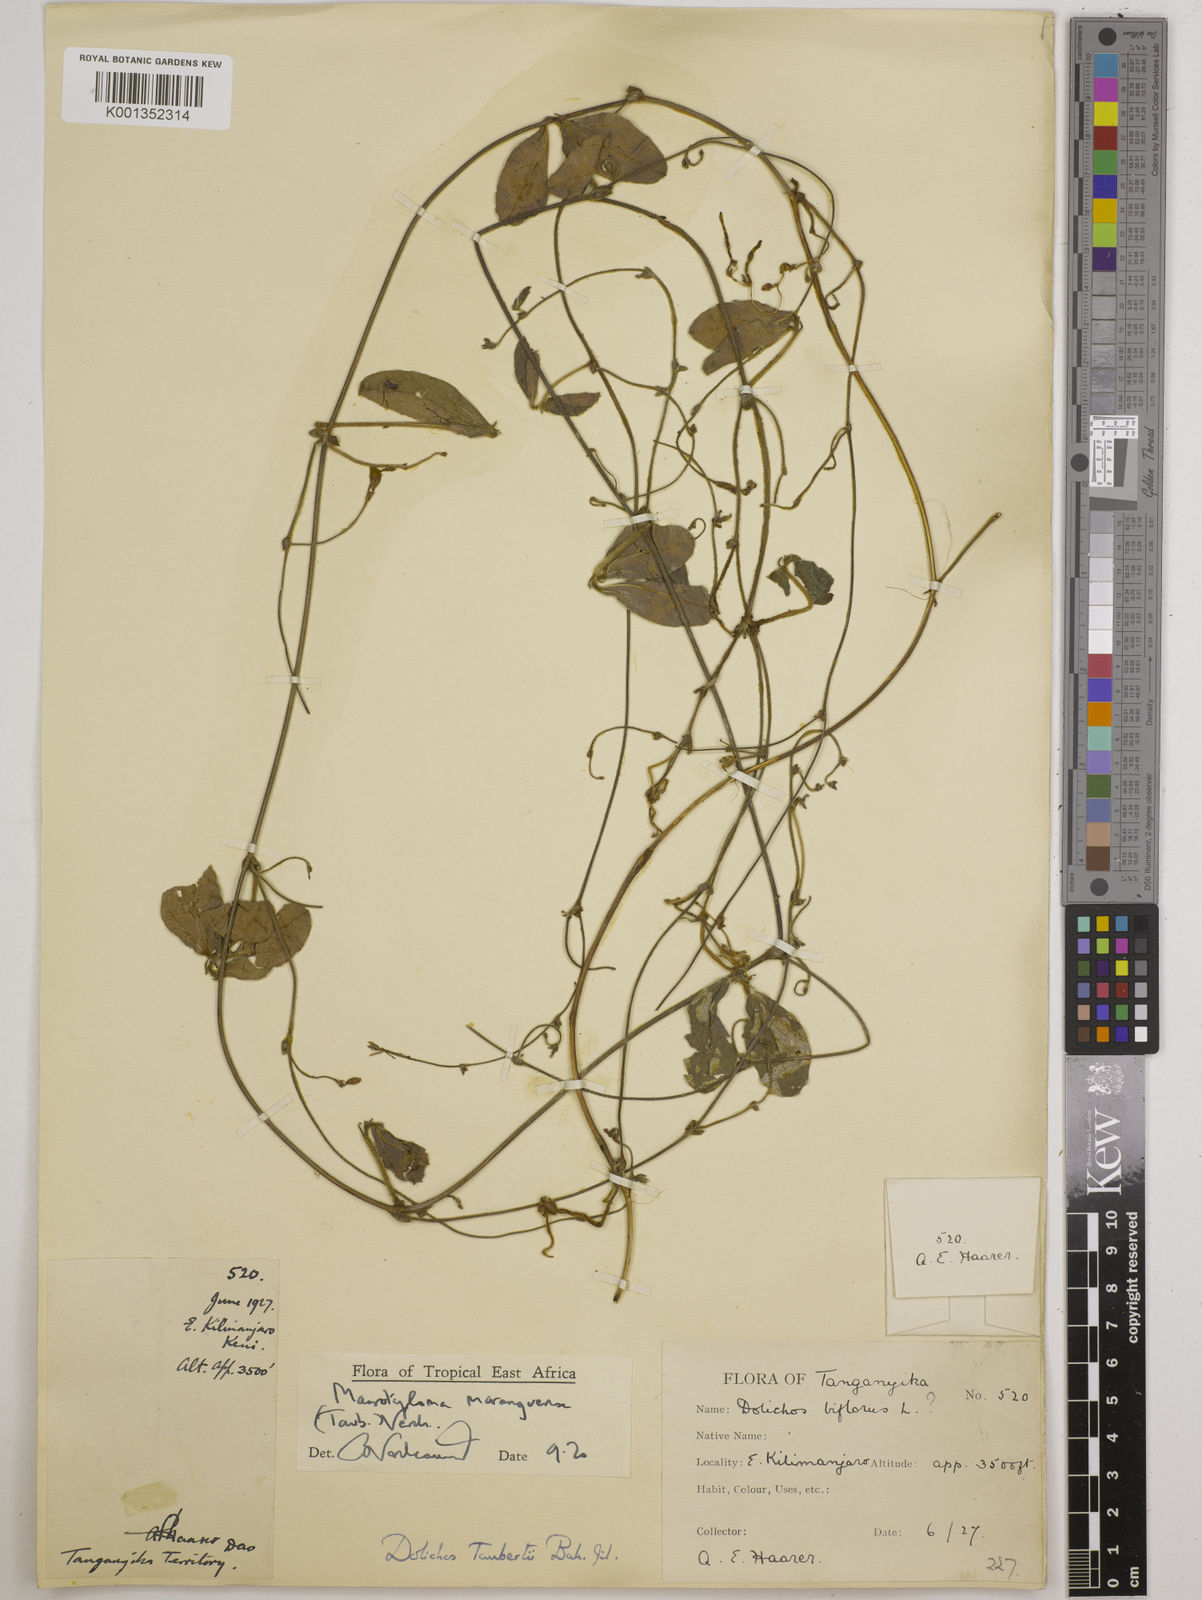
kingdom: Plantae
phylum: Tracheophyta
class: Magnoliopsida
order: Fabales
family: Fabaceae
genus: Macrotyloma
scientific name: Macrotyloma maranguense
